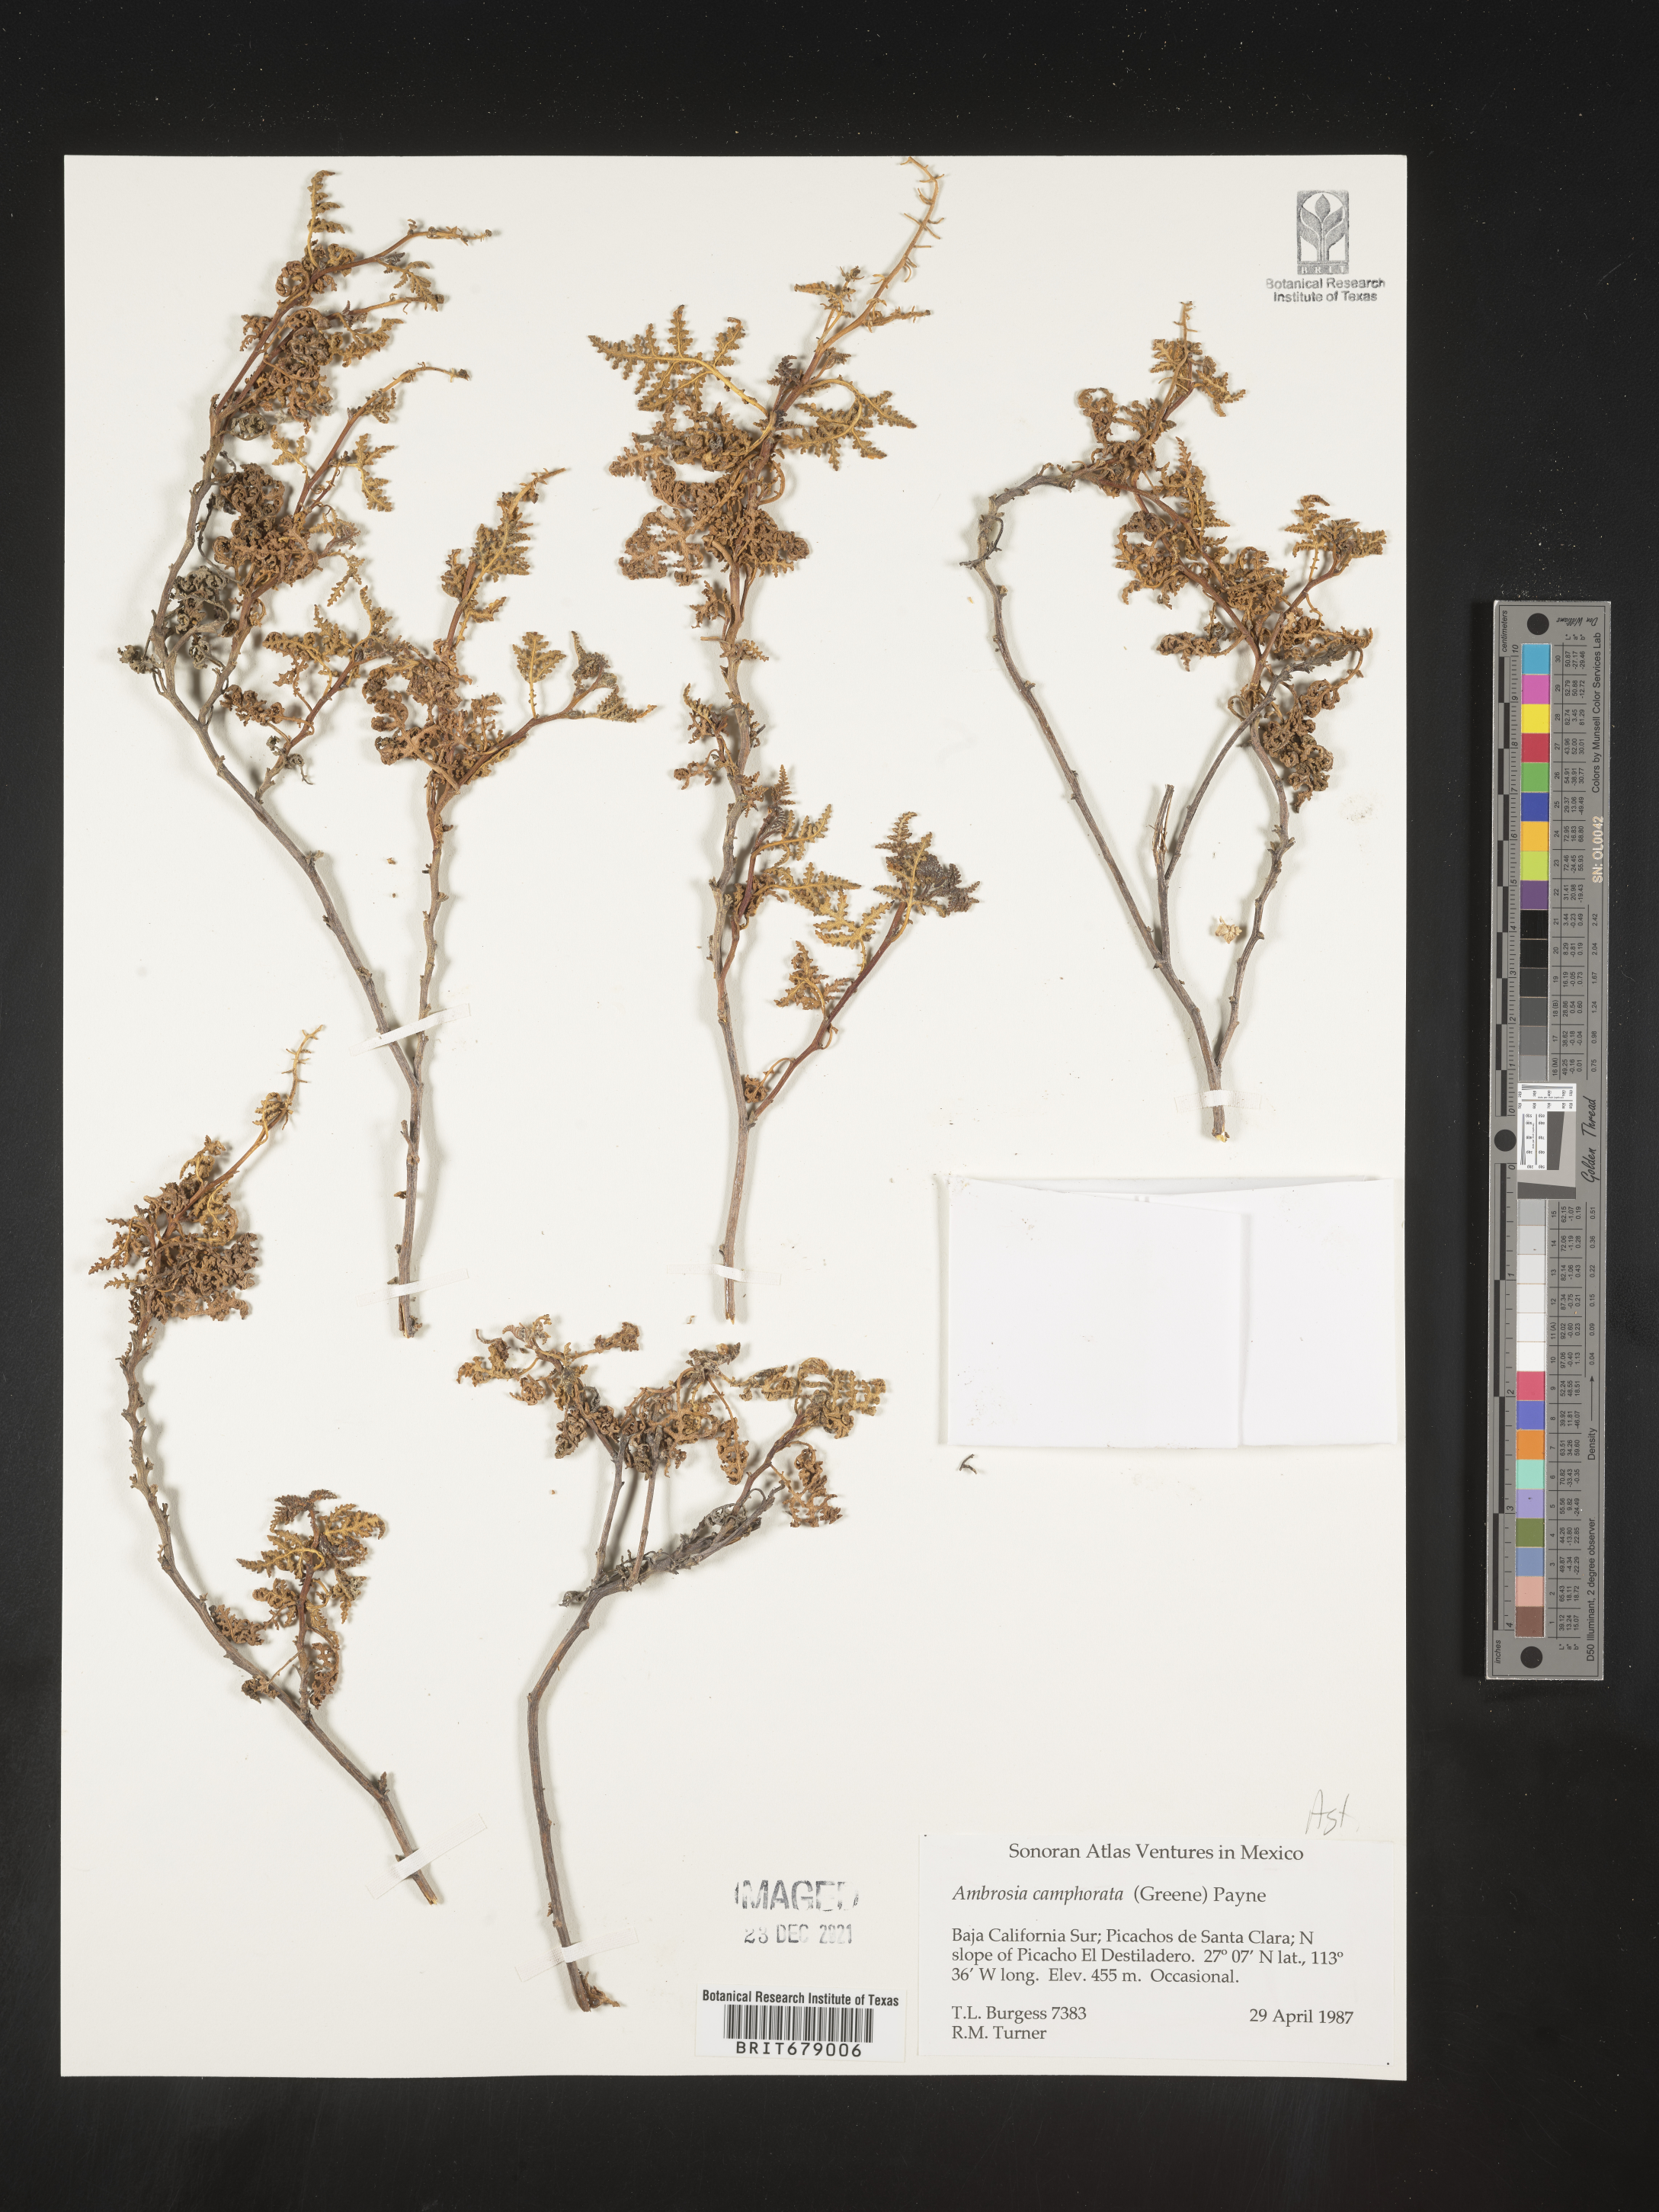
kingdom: Plantae
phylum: Tracheophyta
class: Magnoliopsida
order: Asterales
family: Asteraceae
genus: Ambrosia
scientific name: Ambrosia
